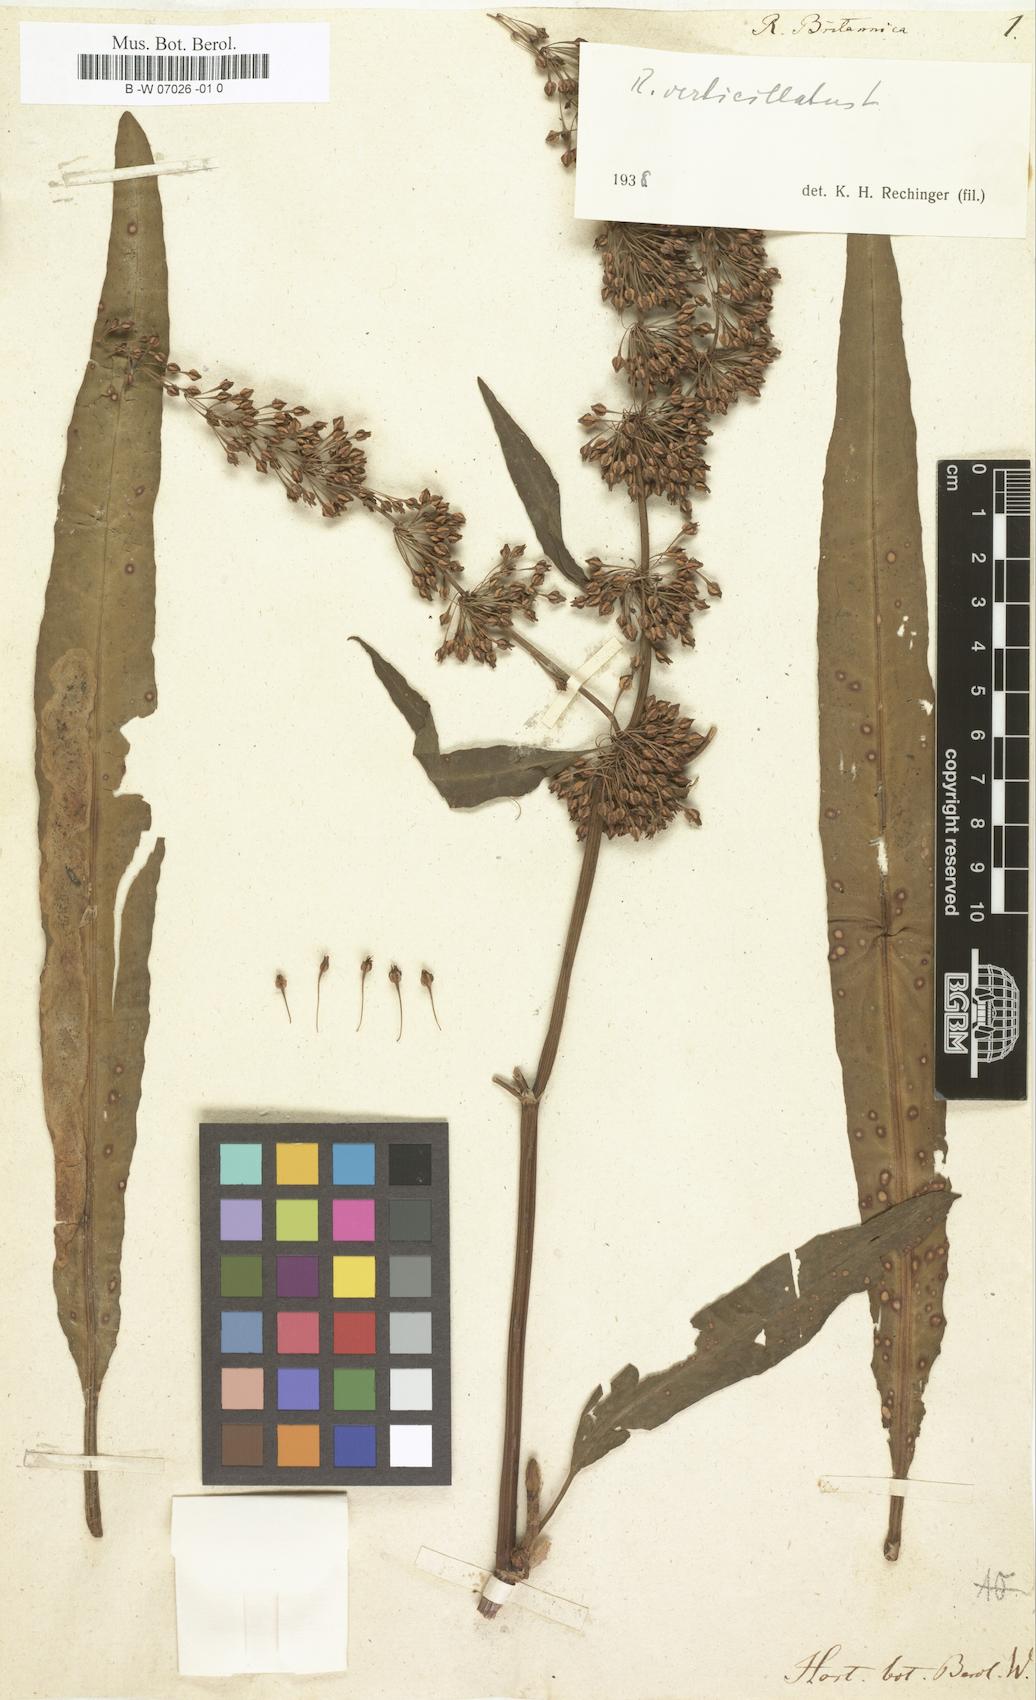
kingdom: Plantae
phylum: Tracheophyta
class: Magnoliopsida
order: Caryophyllales
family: Polygonaceae
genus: Rumex
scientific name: Rumex britannica
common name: British dock
